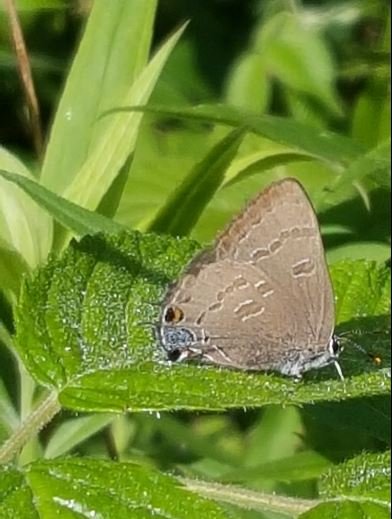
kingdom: Animalia
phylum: Arthropoda
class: Insecta
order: Lepidoptera
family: Lycaenidae
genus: Strymon
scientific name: Strymon caryaevorus
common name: Hickory Hairstreak
